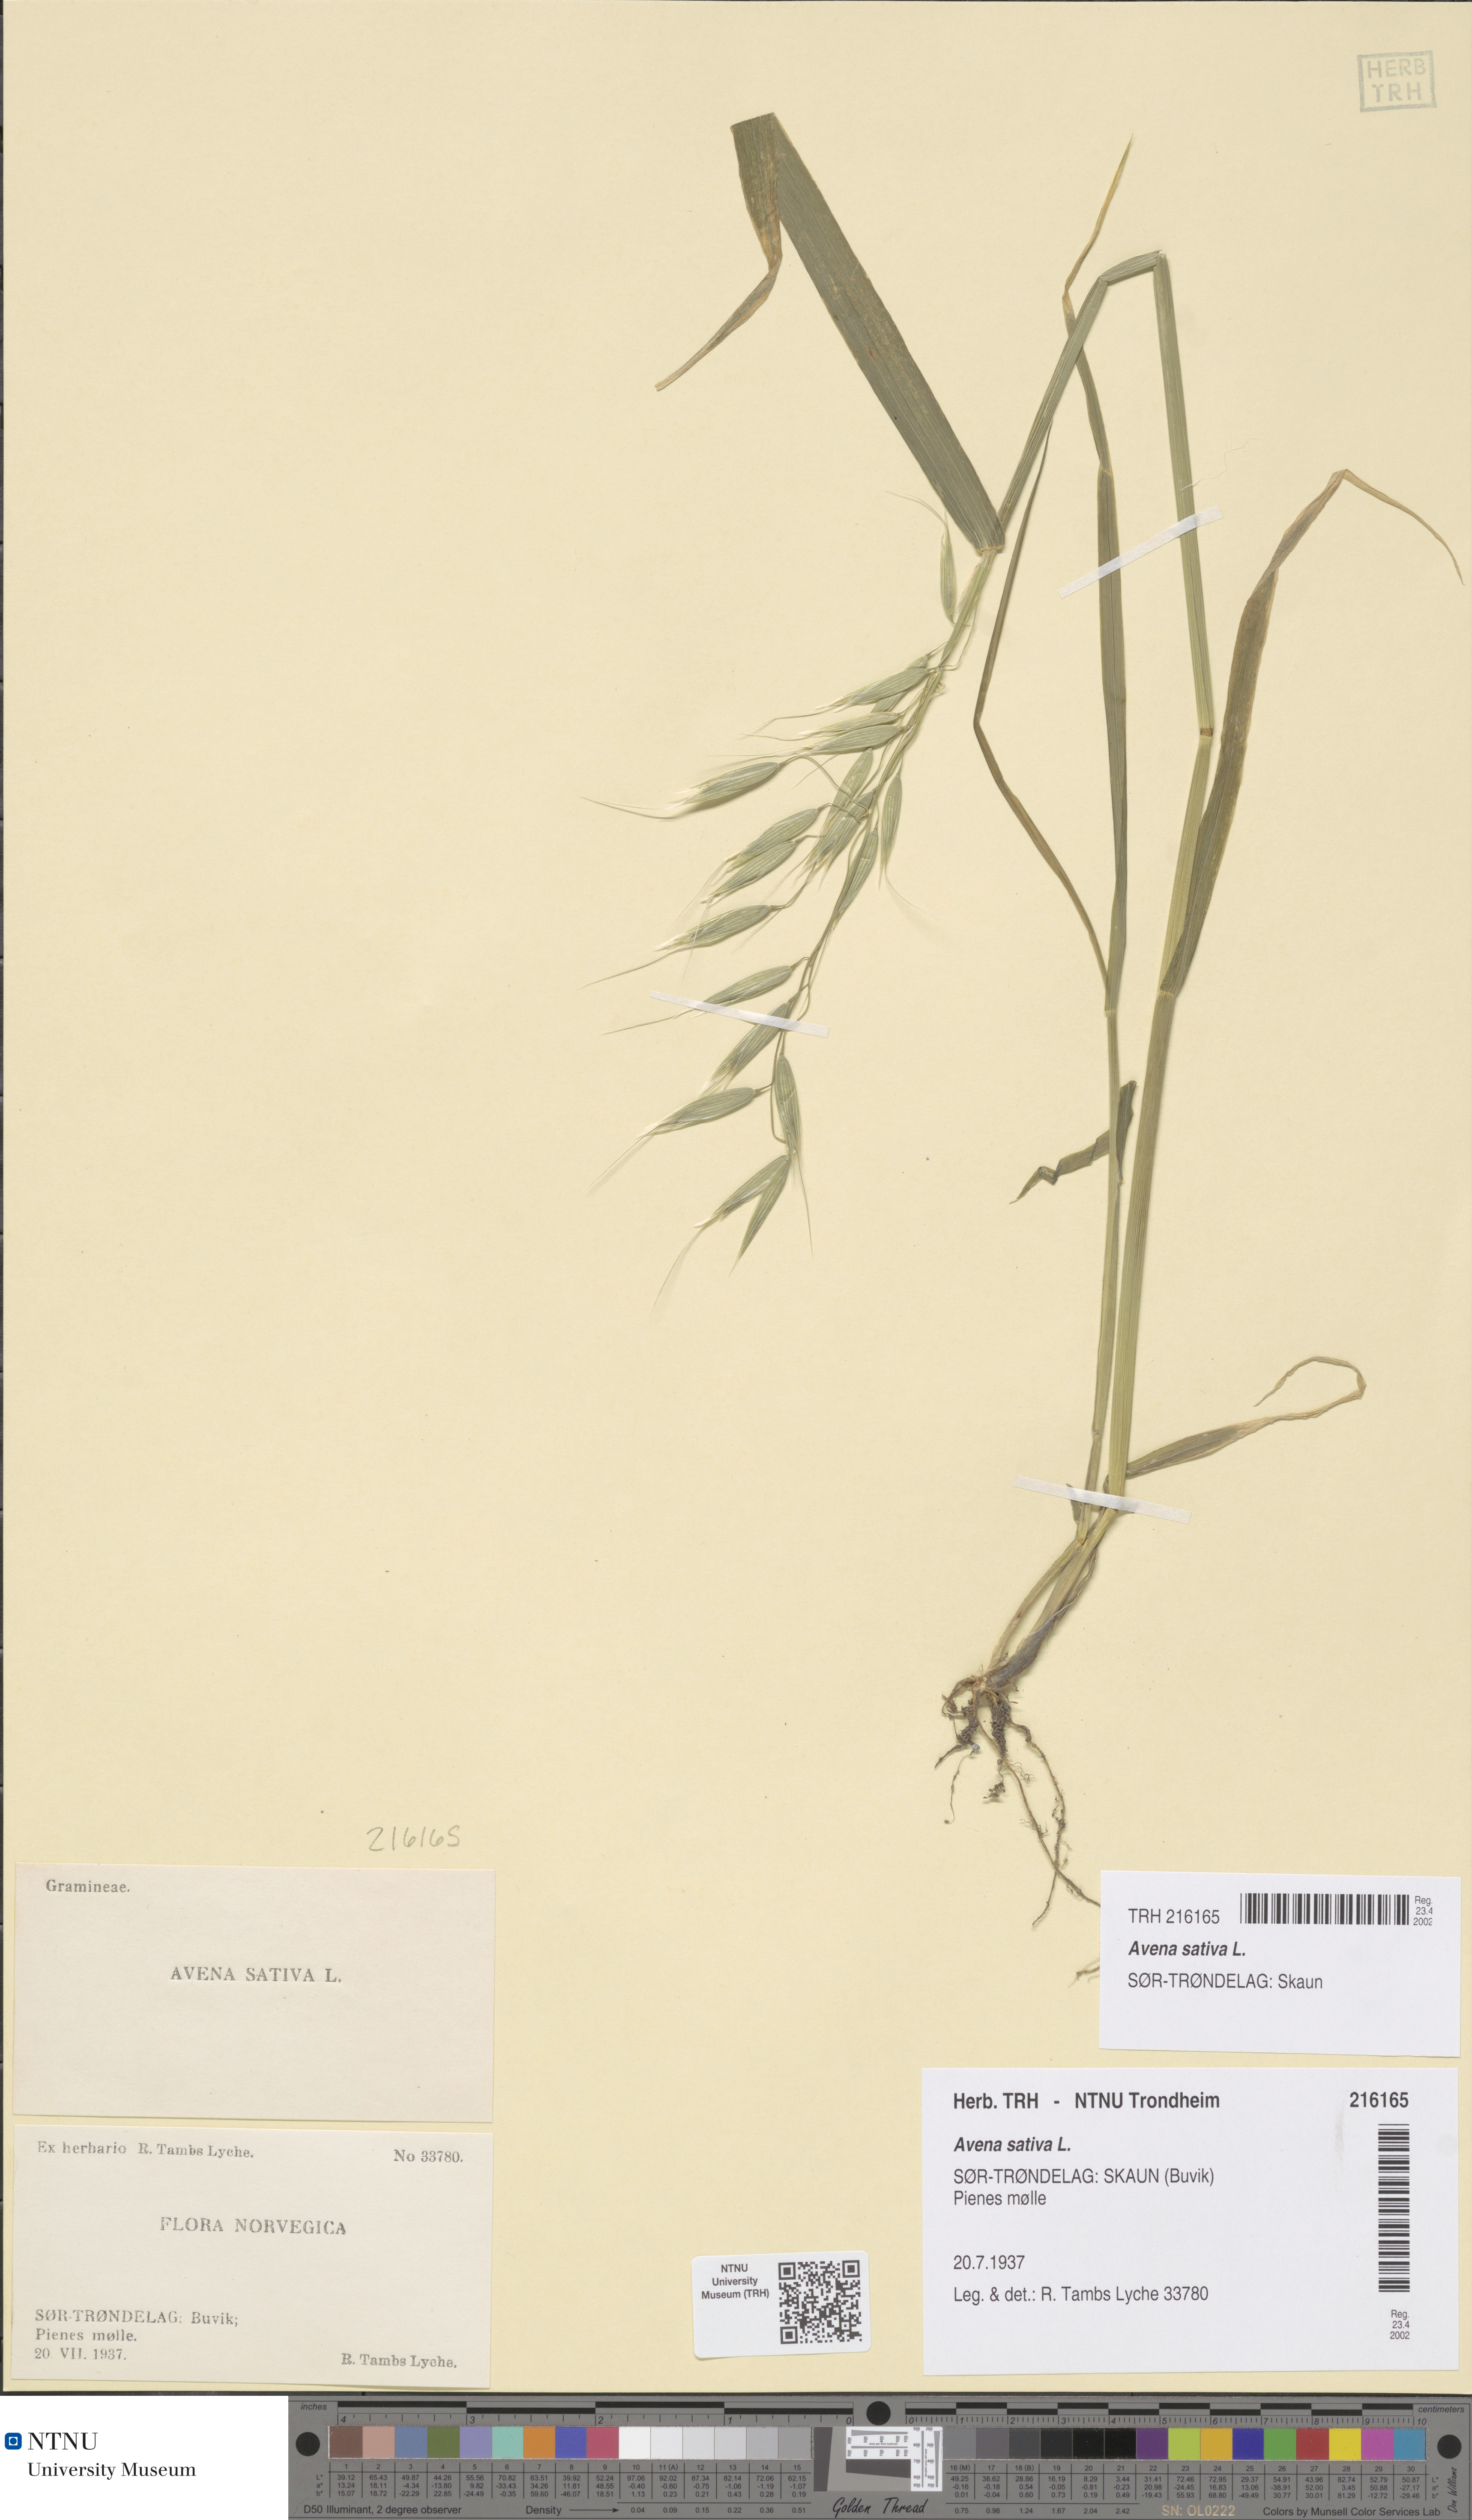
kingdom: Plantae
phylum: Tracheophyta
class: Liliopsida
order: Poales
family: Poaceae
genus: Avena
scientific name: Avena sativa
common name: Oat
